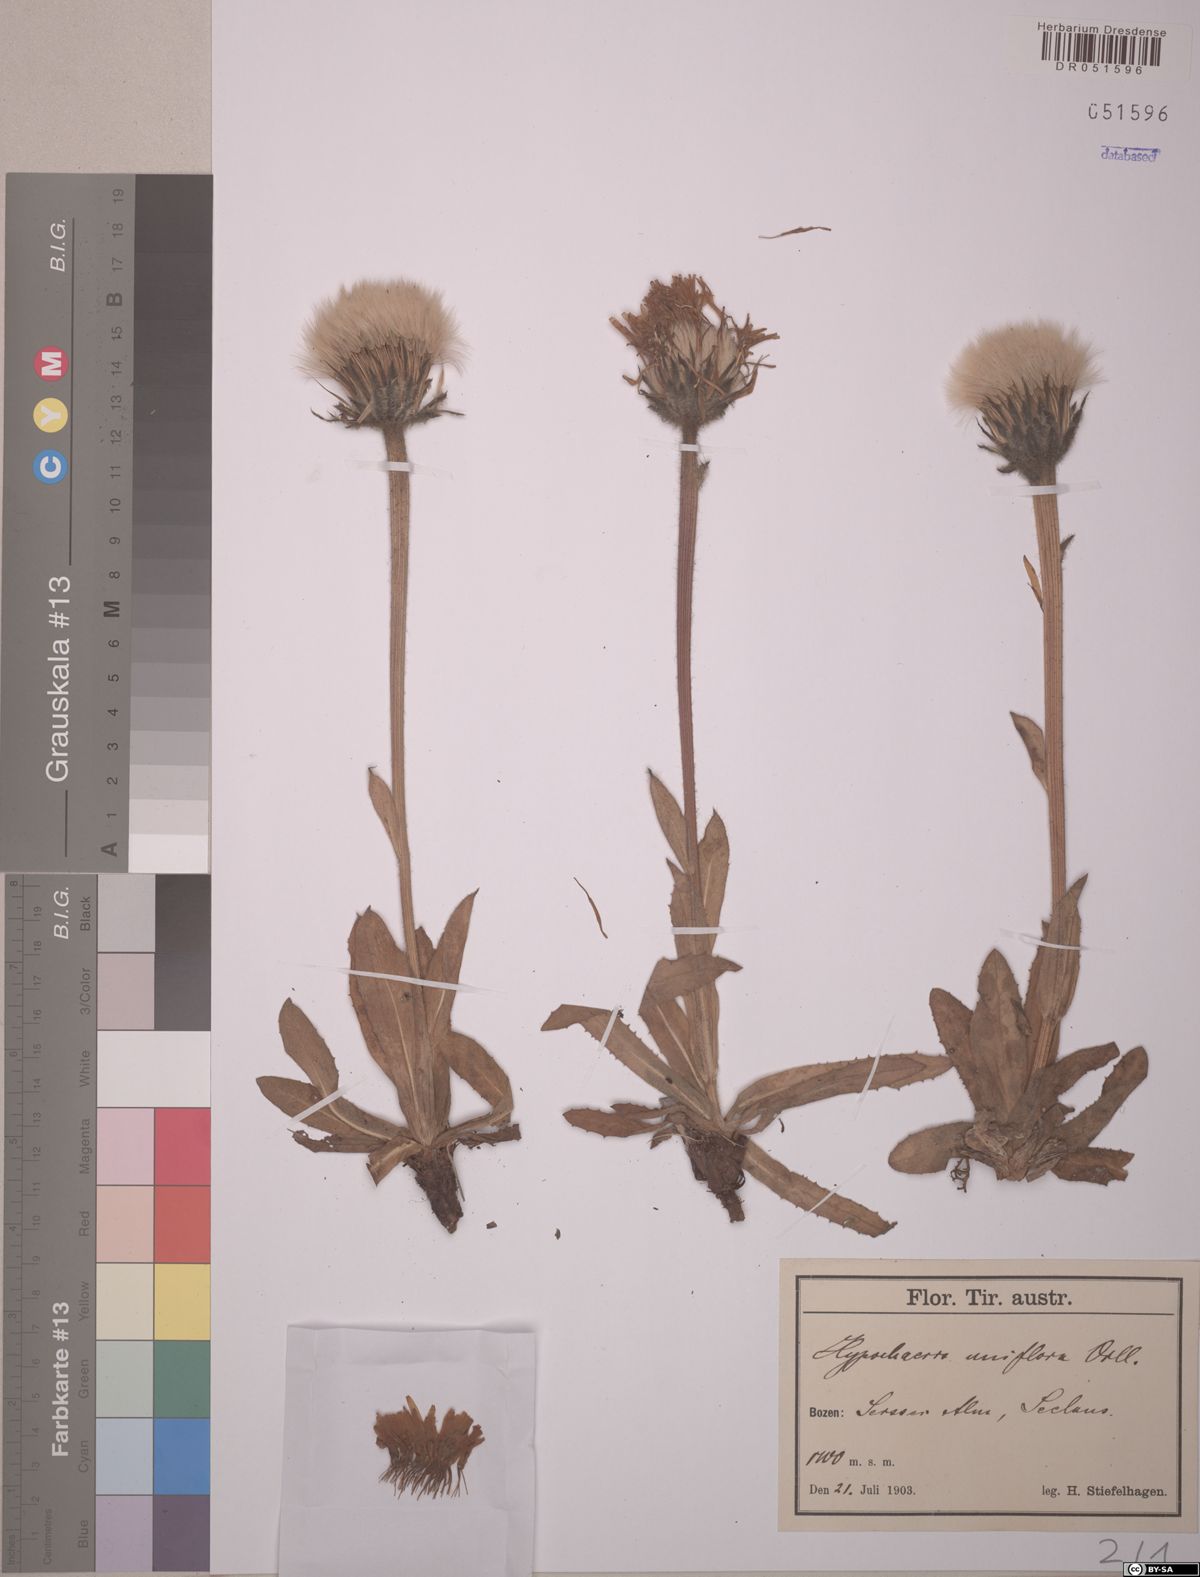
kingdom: Plantae
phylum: Tracheophyta
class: Magnoliopsida
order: Asterales
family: Asteraceae
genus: Trommsdorffia
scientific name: Trommsdorffia uniflora
